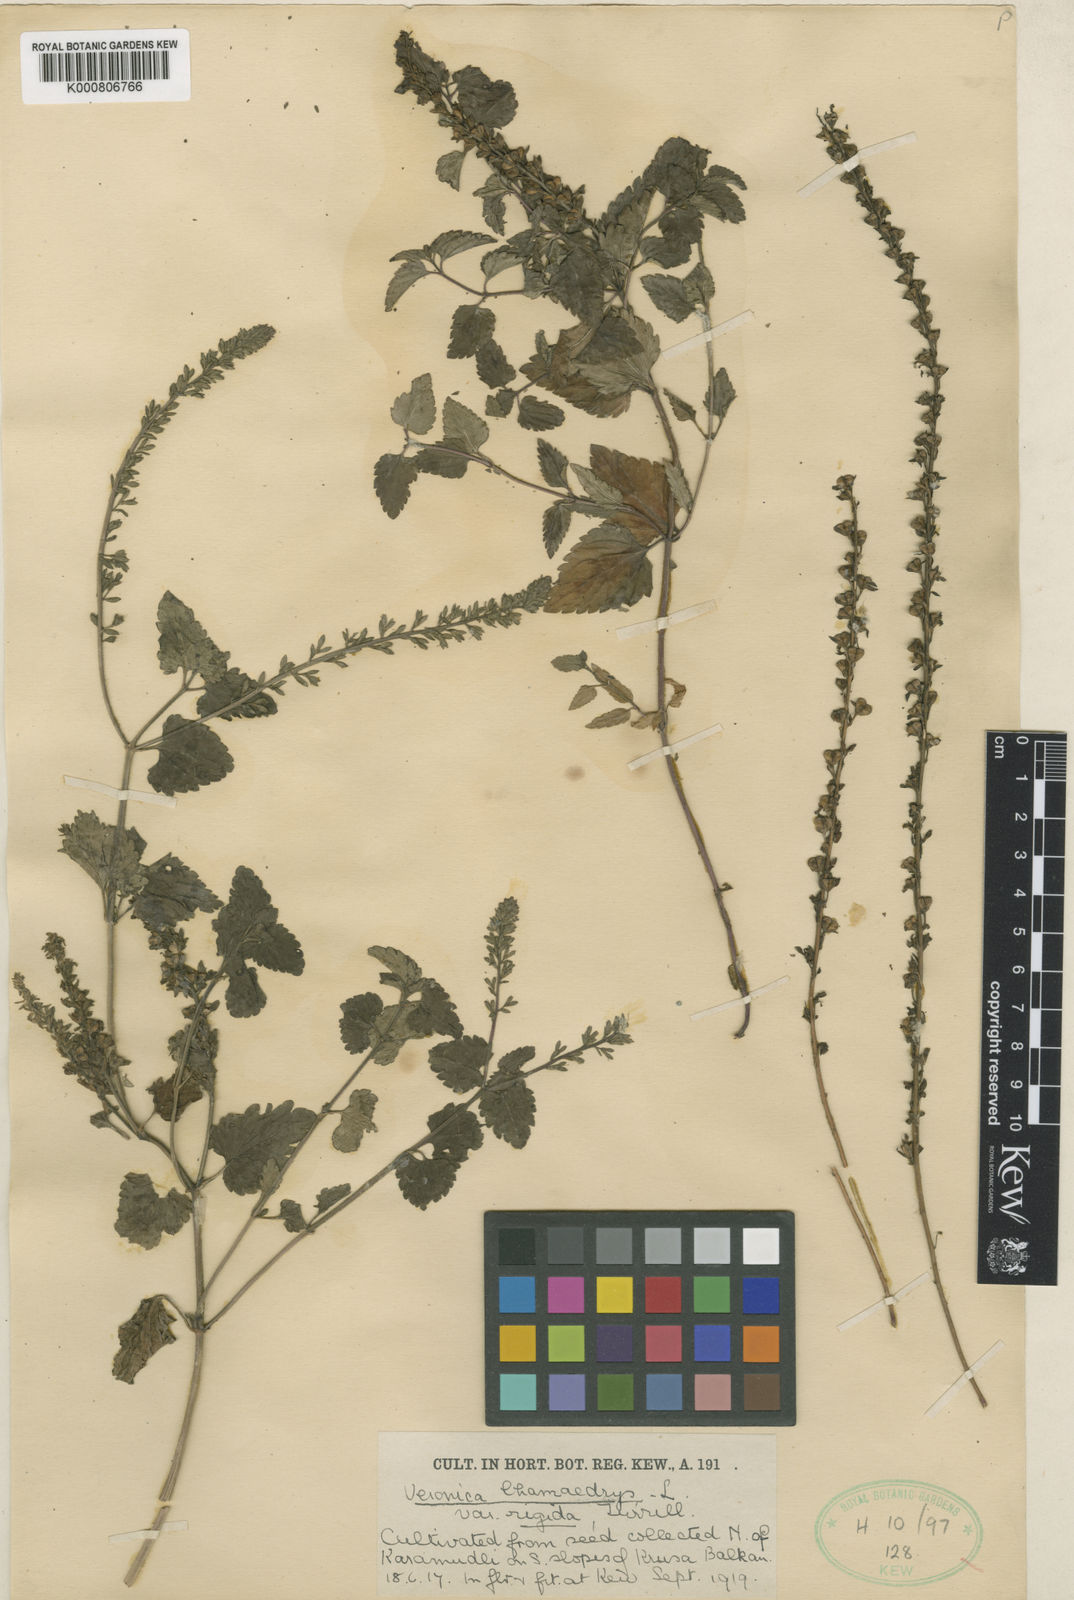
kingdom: Plantae
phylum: Tracheophyta
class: Magnoliopsida
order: Lamiales
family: Plantaginaceae
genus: Veronica
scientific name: Veronica chamaedrys
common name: Germander speedwell
